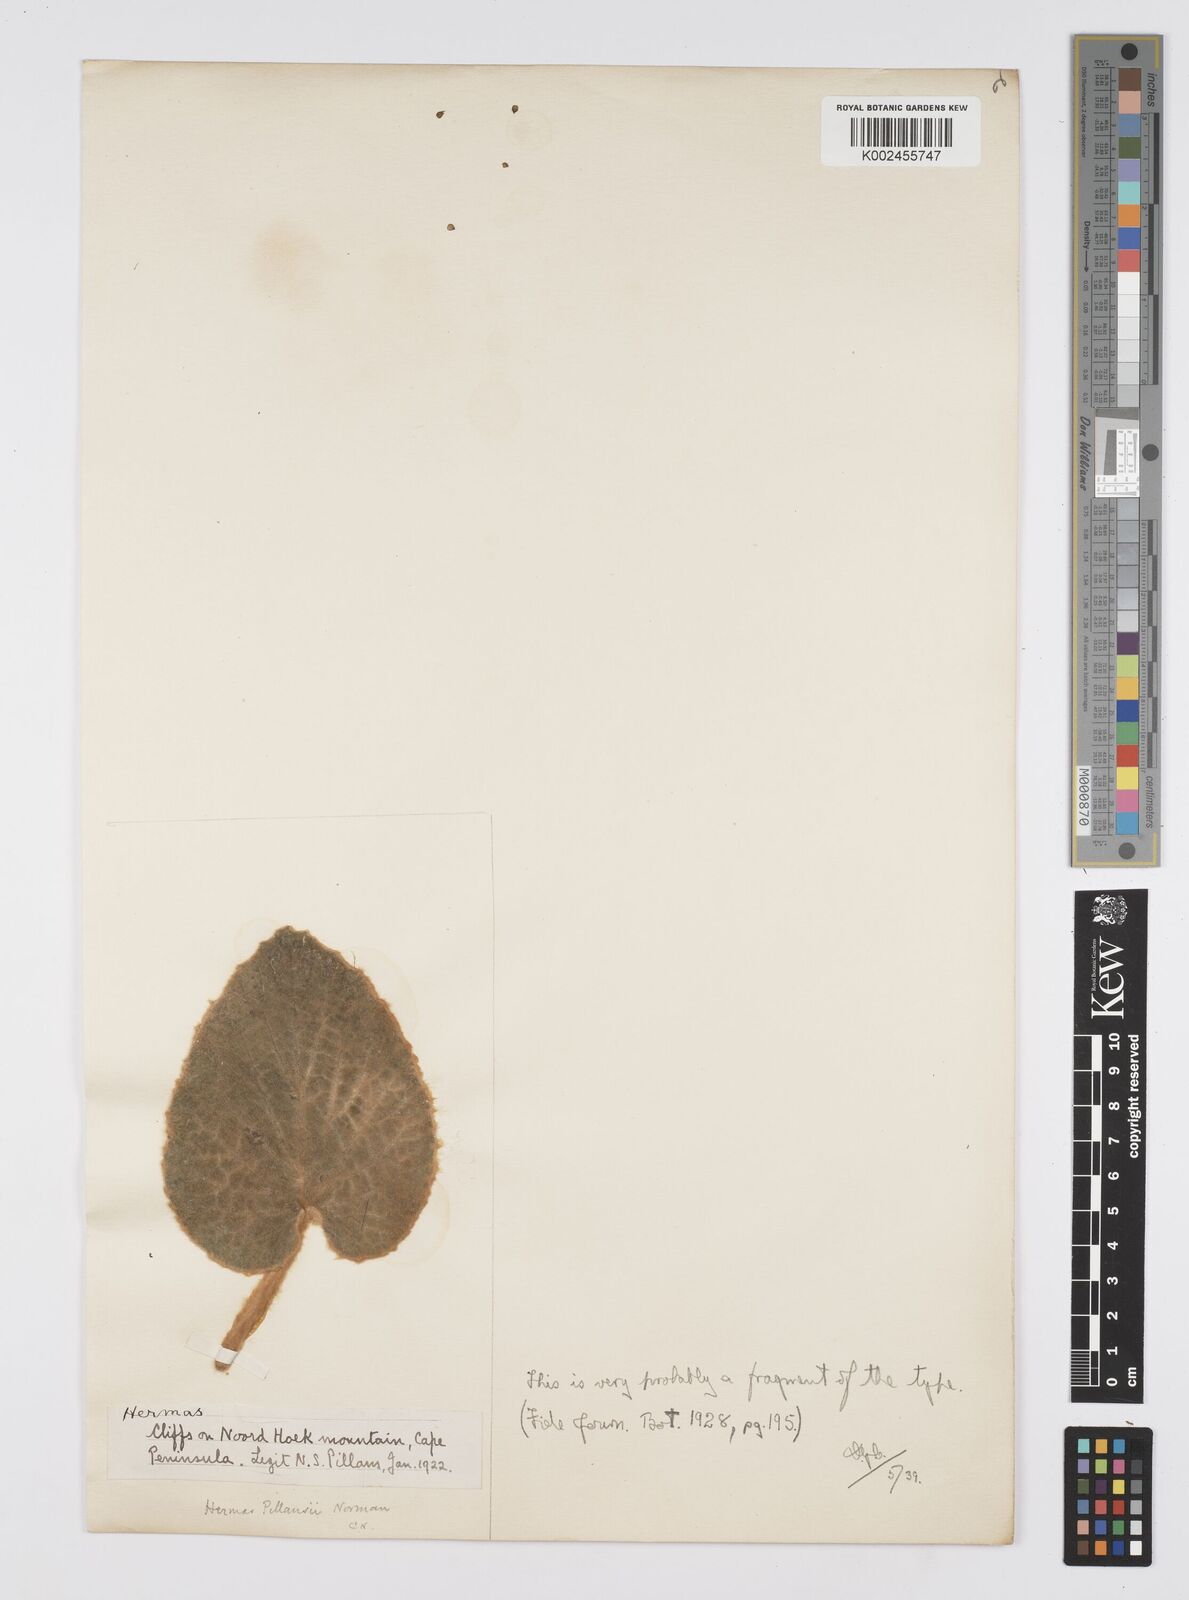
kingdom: Plantae
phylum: Tracheophyta
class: Magnoliopsida
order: Apiales
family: Apiaceae
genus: Hermas
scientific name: Hermas capitata
